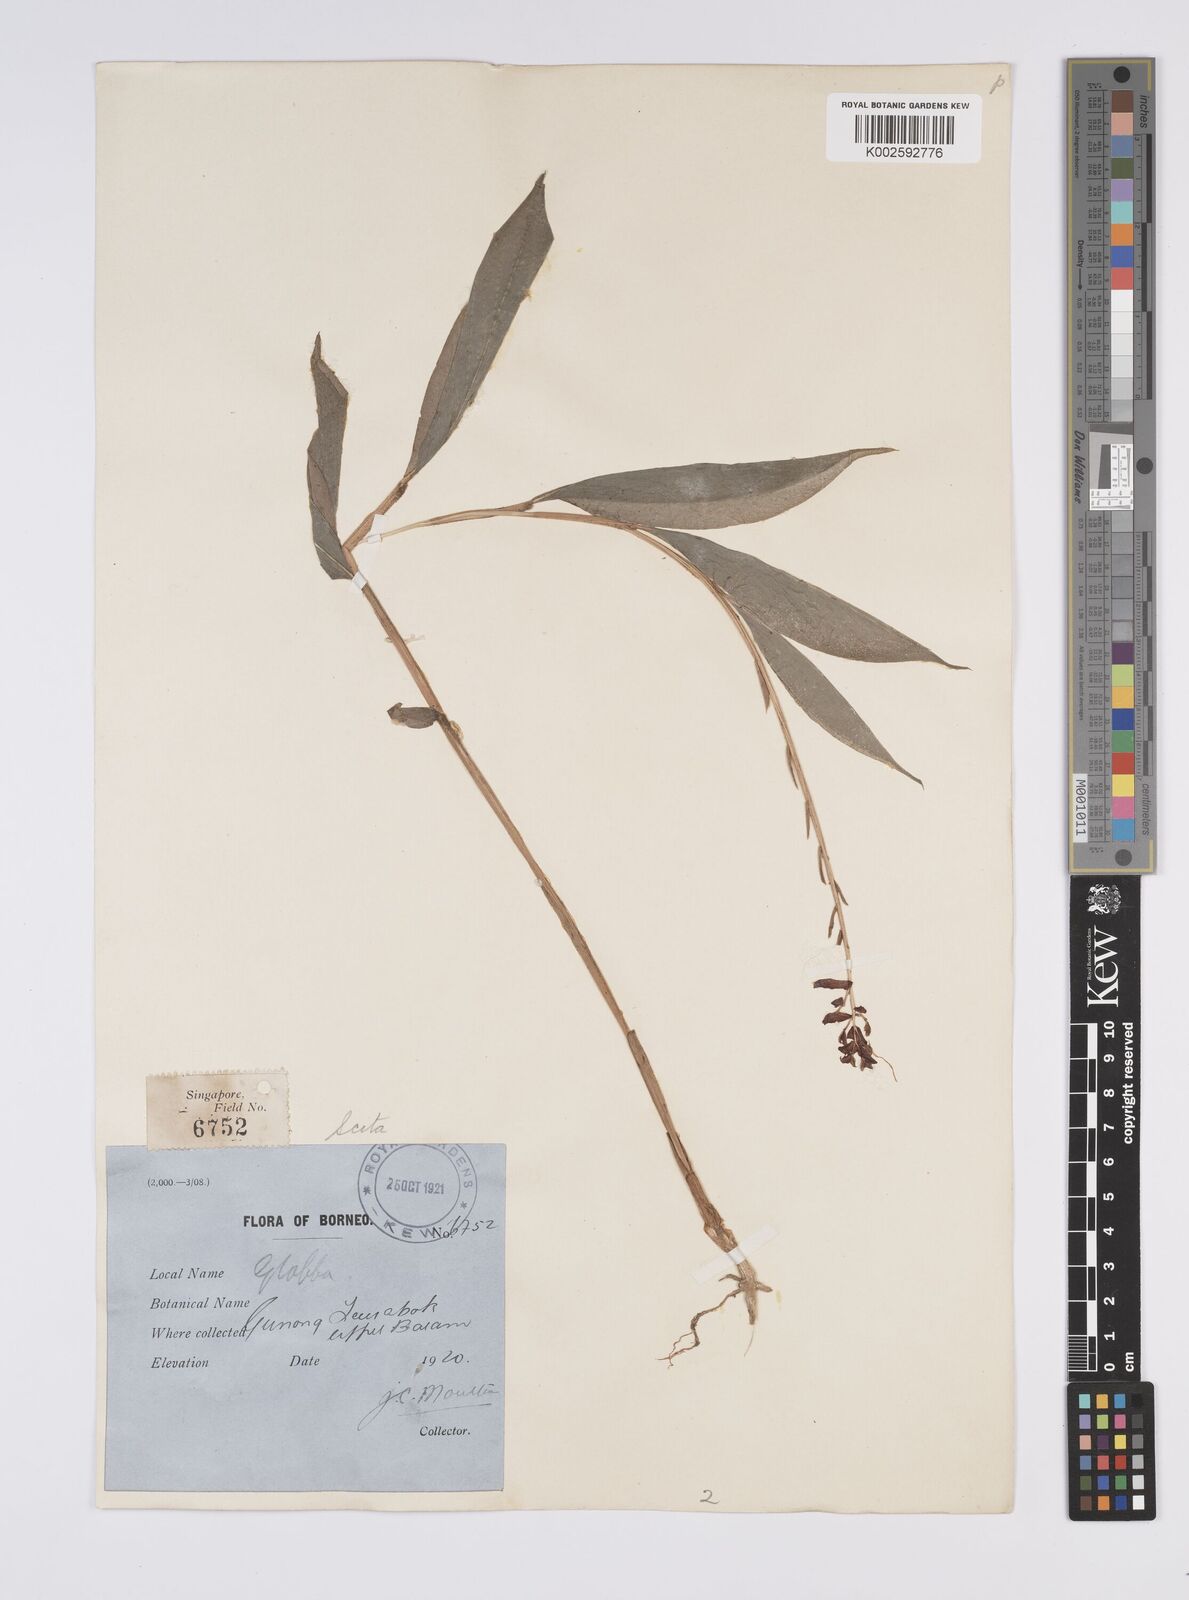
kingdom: Plantae
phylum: Tracheophyta
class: Liliopsida
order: Zingiberales
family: Zingiberaceae
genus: Globba
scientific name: Globba atrosanguinea
